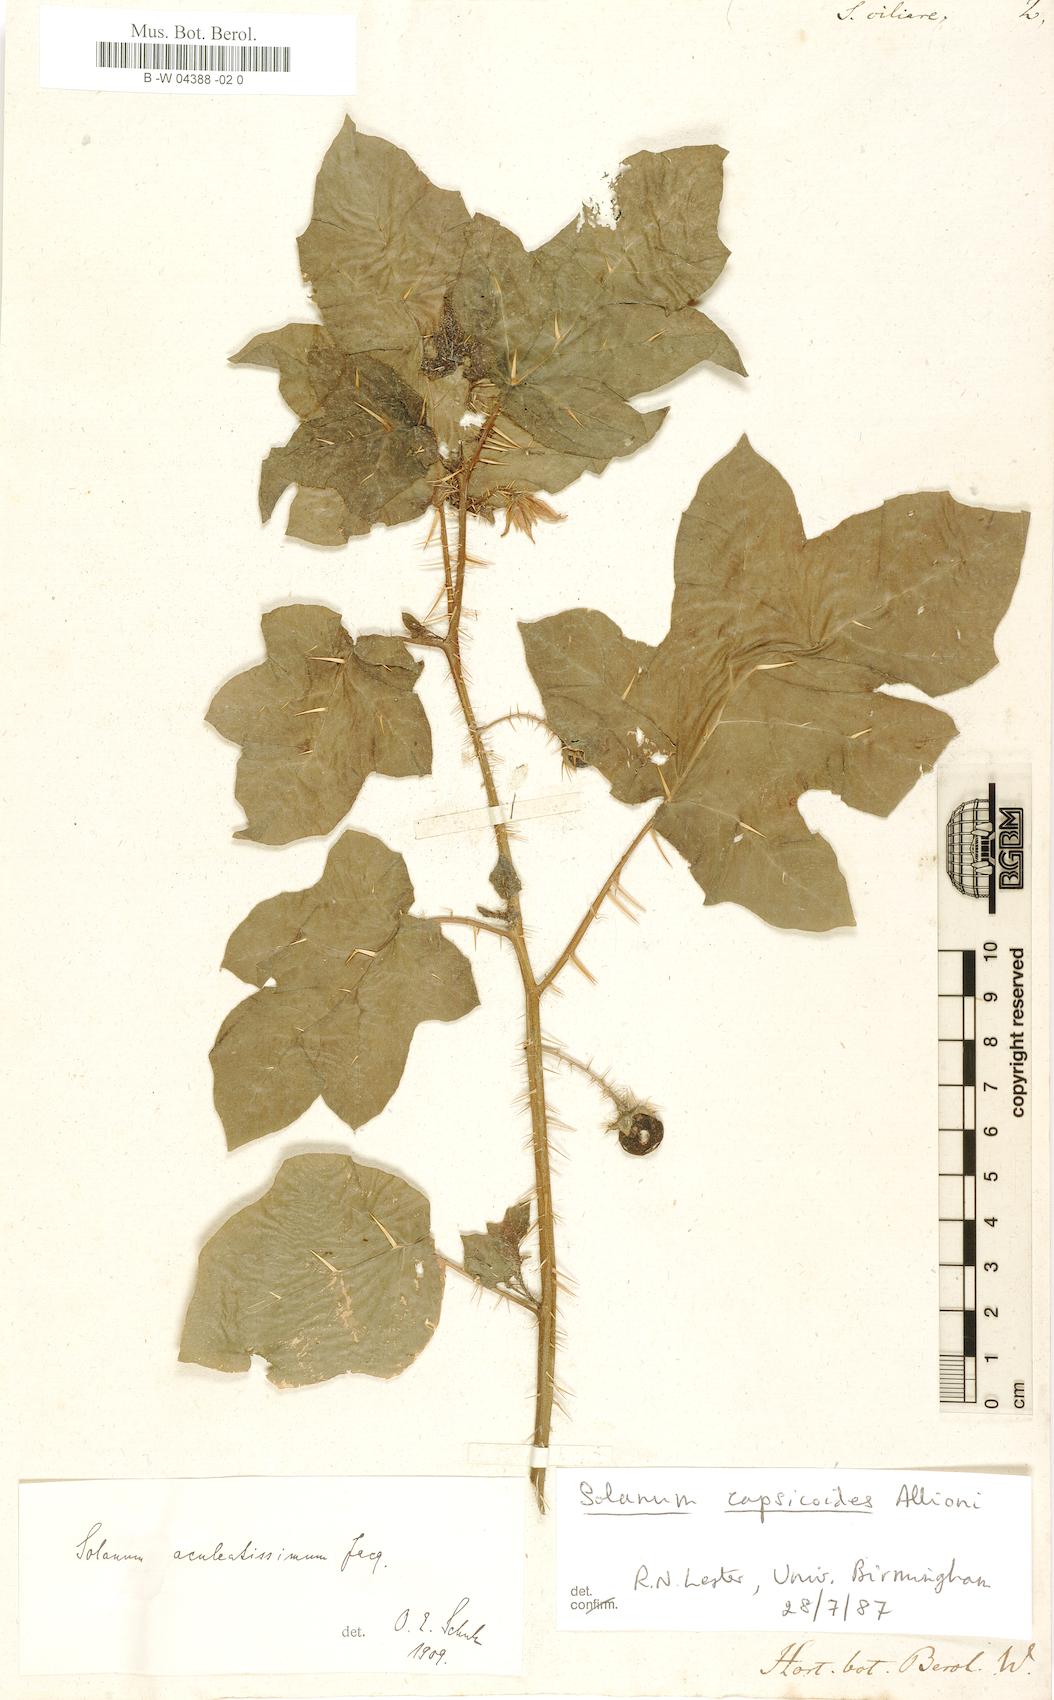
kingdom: Plantae
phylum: Tracheophyta
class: Magnoliopsida
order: Solanales
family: Solanaceae
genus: Solanum
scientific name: Solanum capsicoides
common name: Cockroach berry
